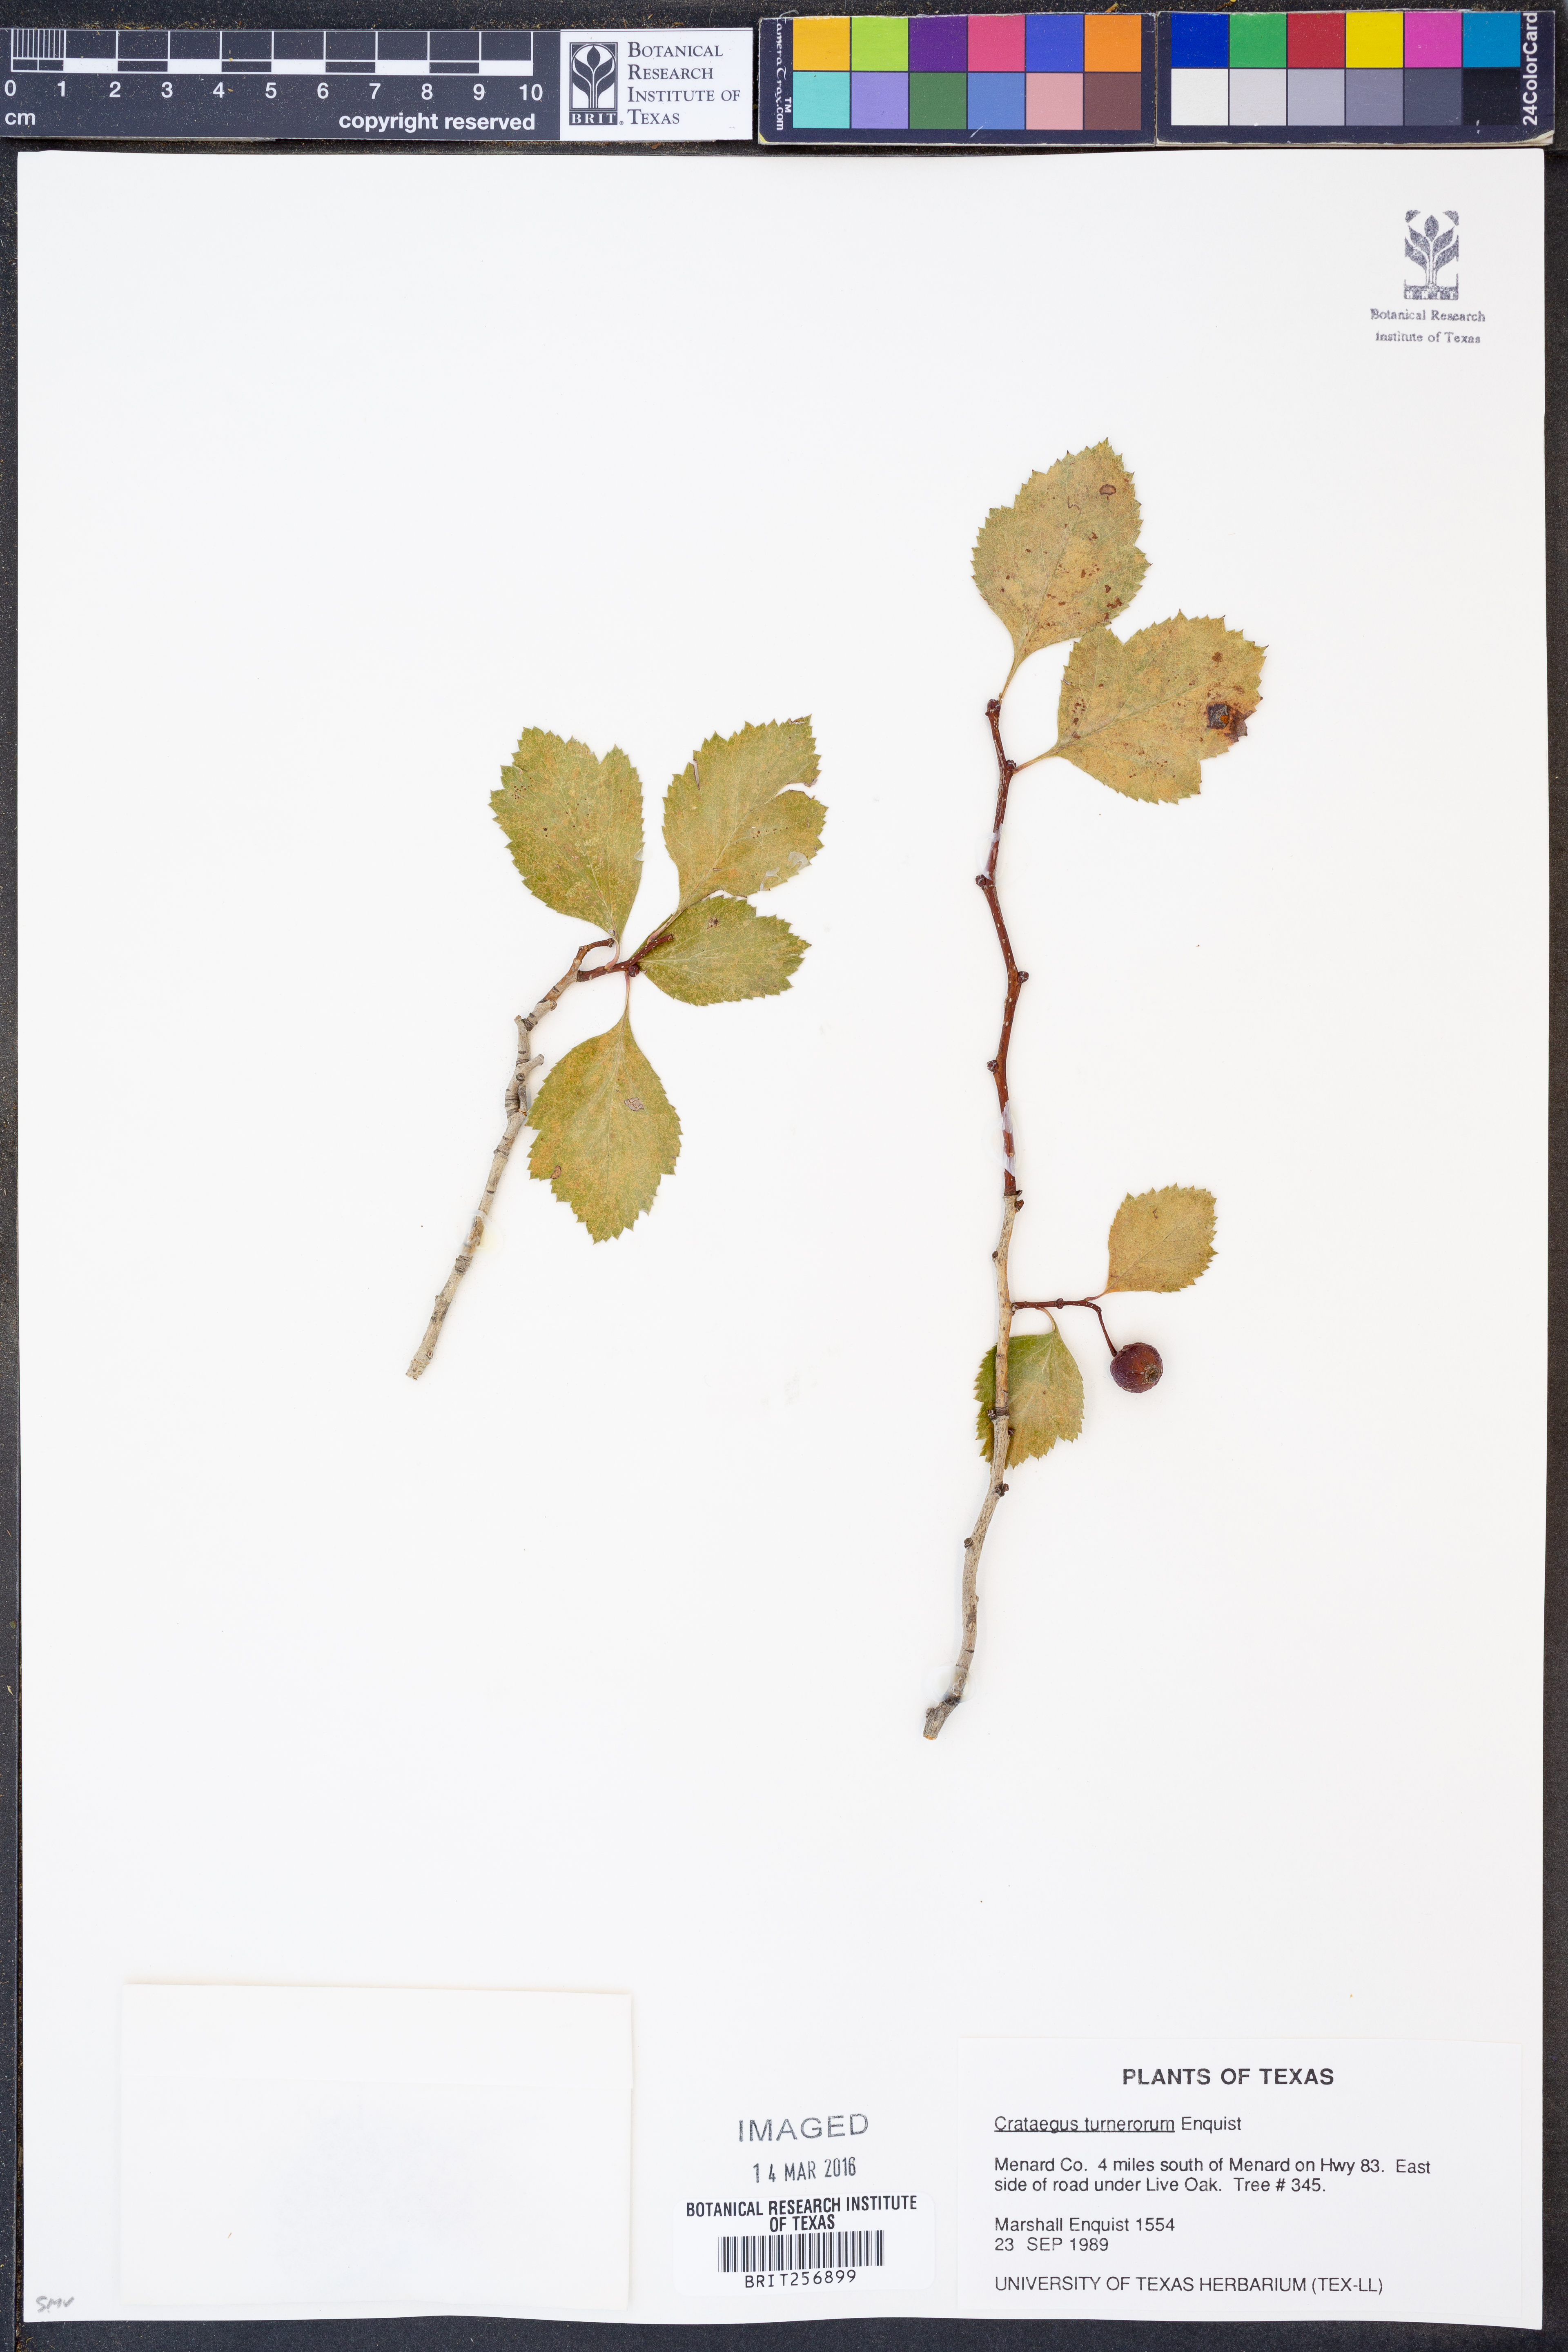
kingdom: Plantae
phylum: Tracheophyta
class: Magnoliopsida
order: Rosales
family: Rosaceae
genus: Crataegus
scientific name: Crataegus turnerorum
